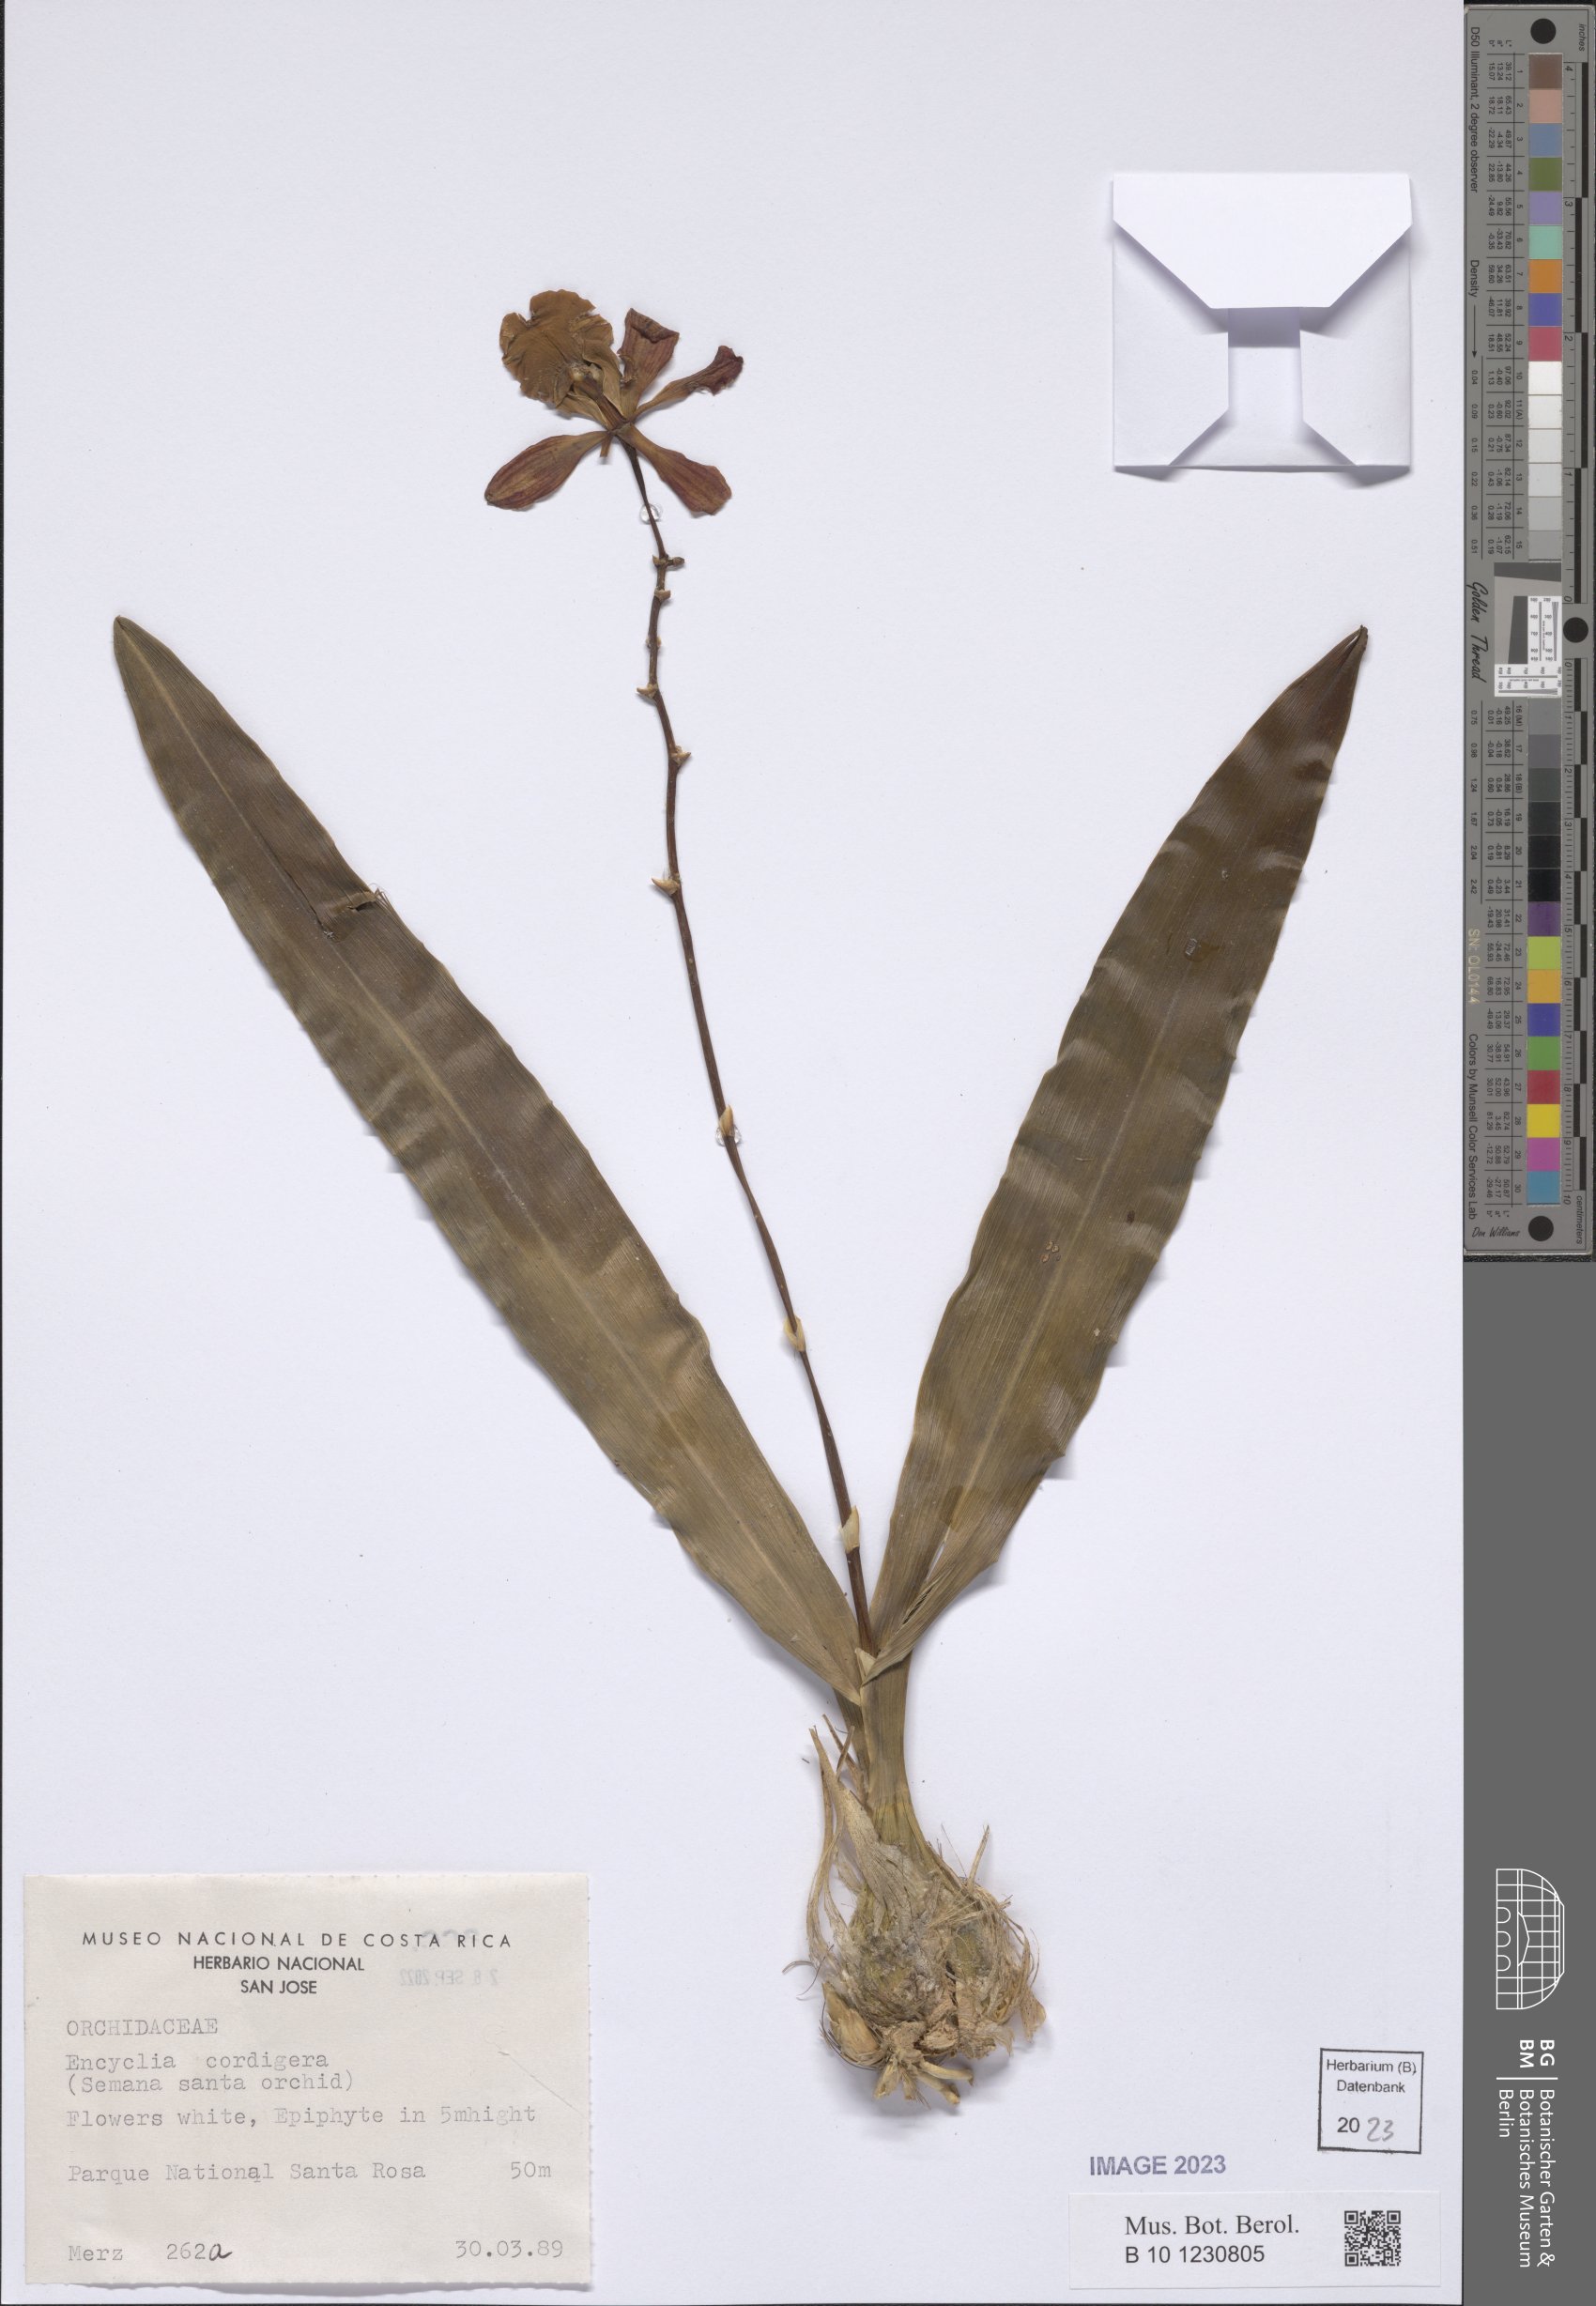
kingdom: Plantae
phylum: Tracheophyta
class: Liliopsida
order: Asparagales
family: Orchidaceae
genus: Encyclia
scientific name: Encyclia cordigera
